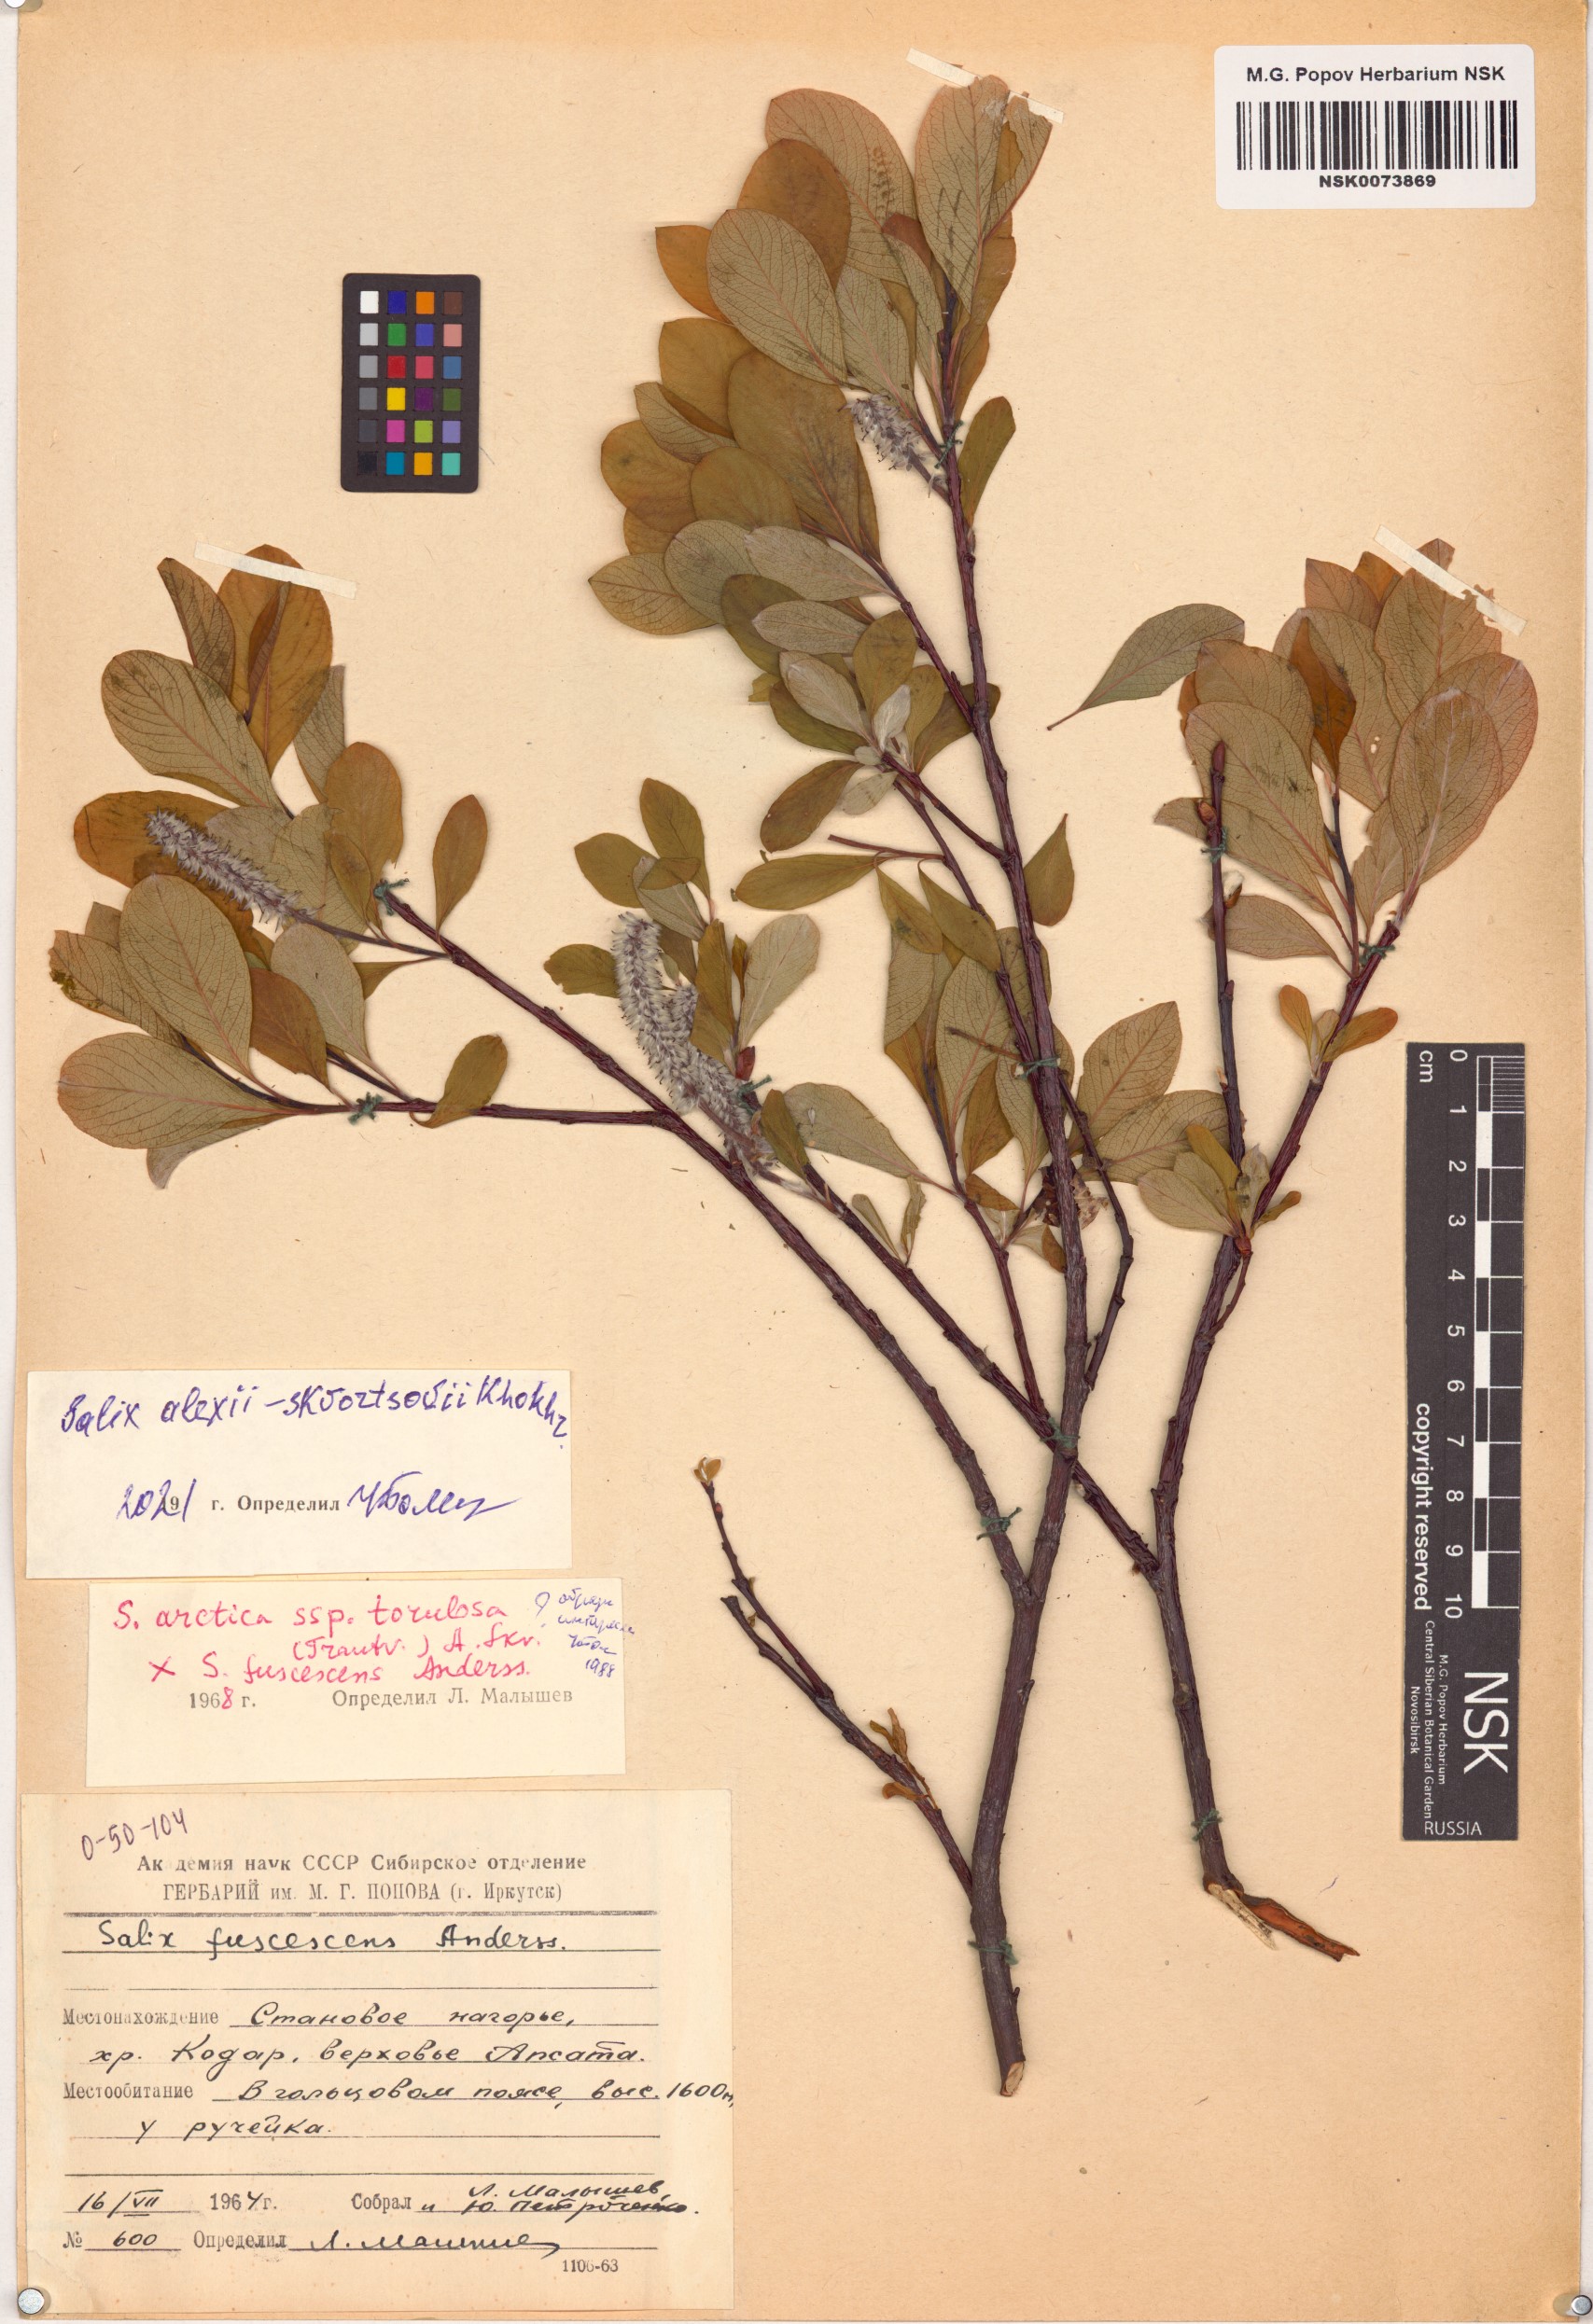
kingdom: Plantae
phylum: Tracheophyta
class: Magnoliopsida
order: Malpighiales
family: Salicaceae
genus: Salix
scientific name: Salix alexii-skvortzovii
